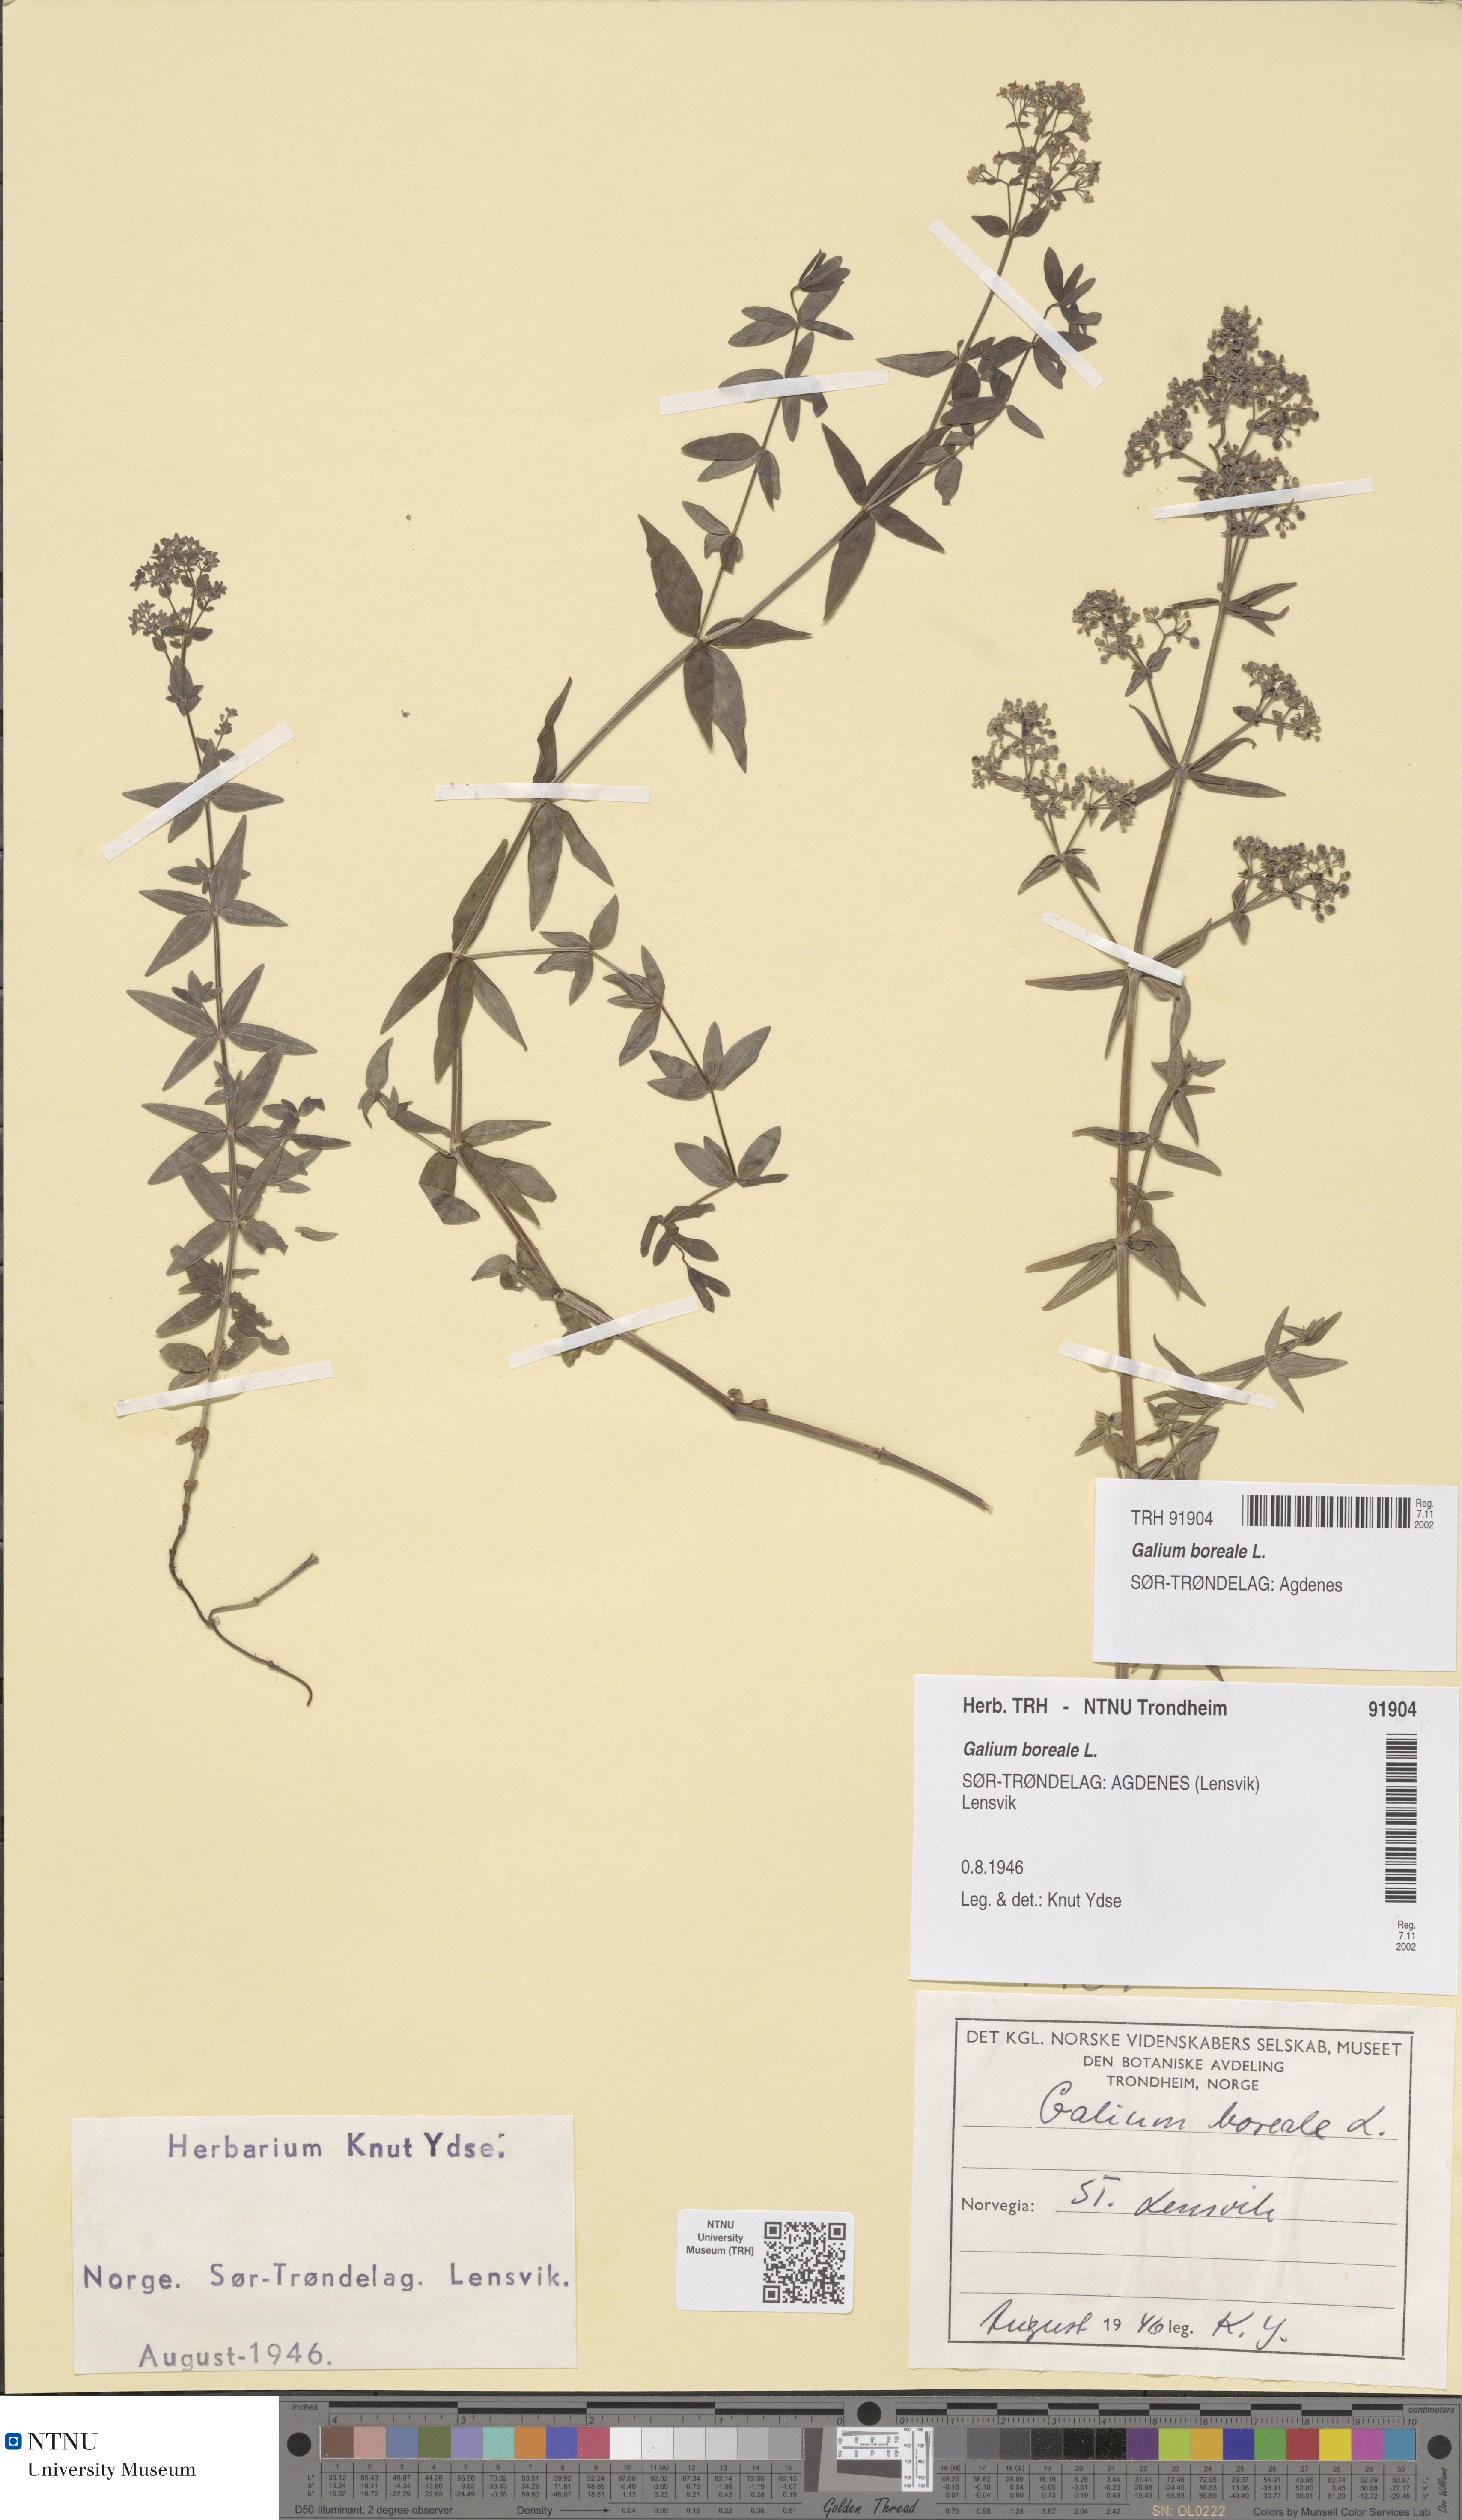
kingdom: Plantae
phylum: Tracheophyta
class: Magnoliopsida
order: Gentianales
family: Rubiaceae
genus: Galium
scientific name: Galium boreale
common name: Northern bedstraw
